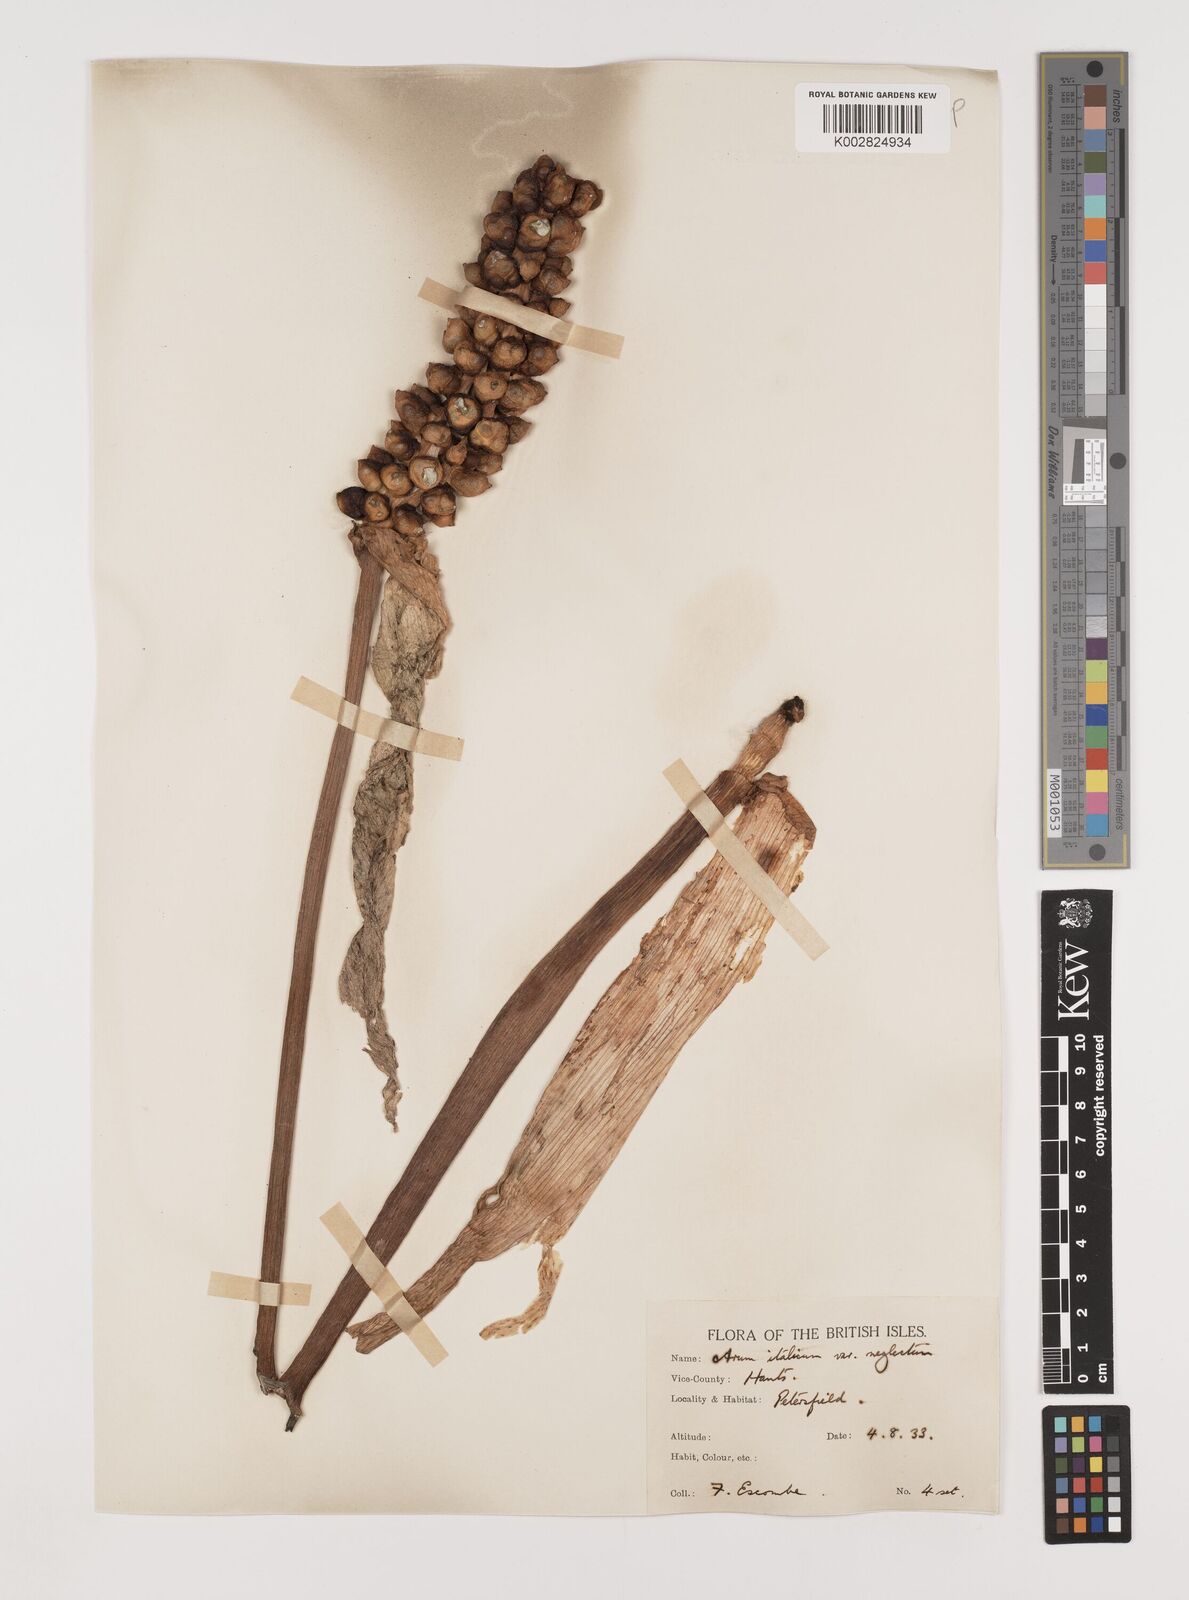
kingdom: Plantae
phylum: Tracheophyta
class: Liliopsida
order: Alismatales
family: Araceae
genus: Arum
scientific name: Arum italicum
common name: Italian lords-and-ladies
